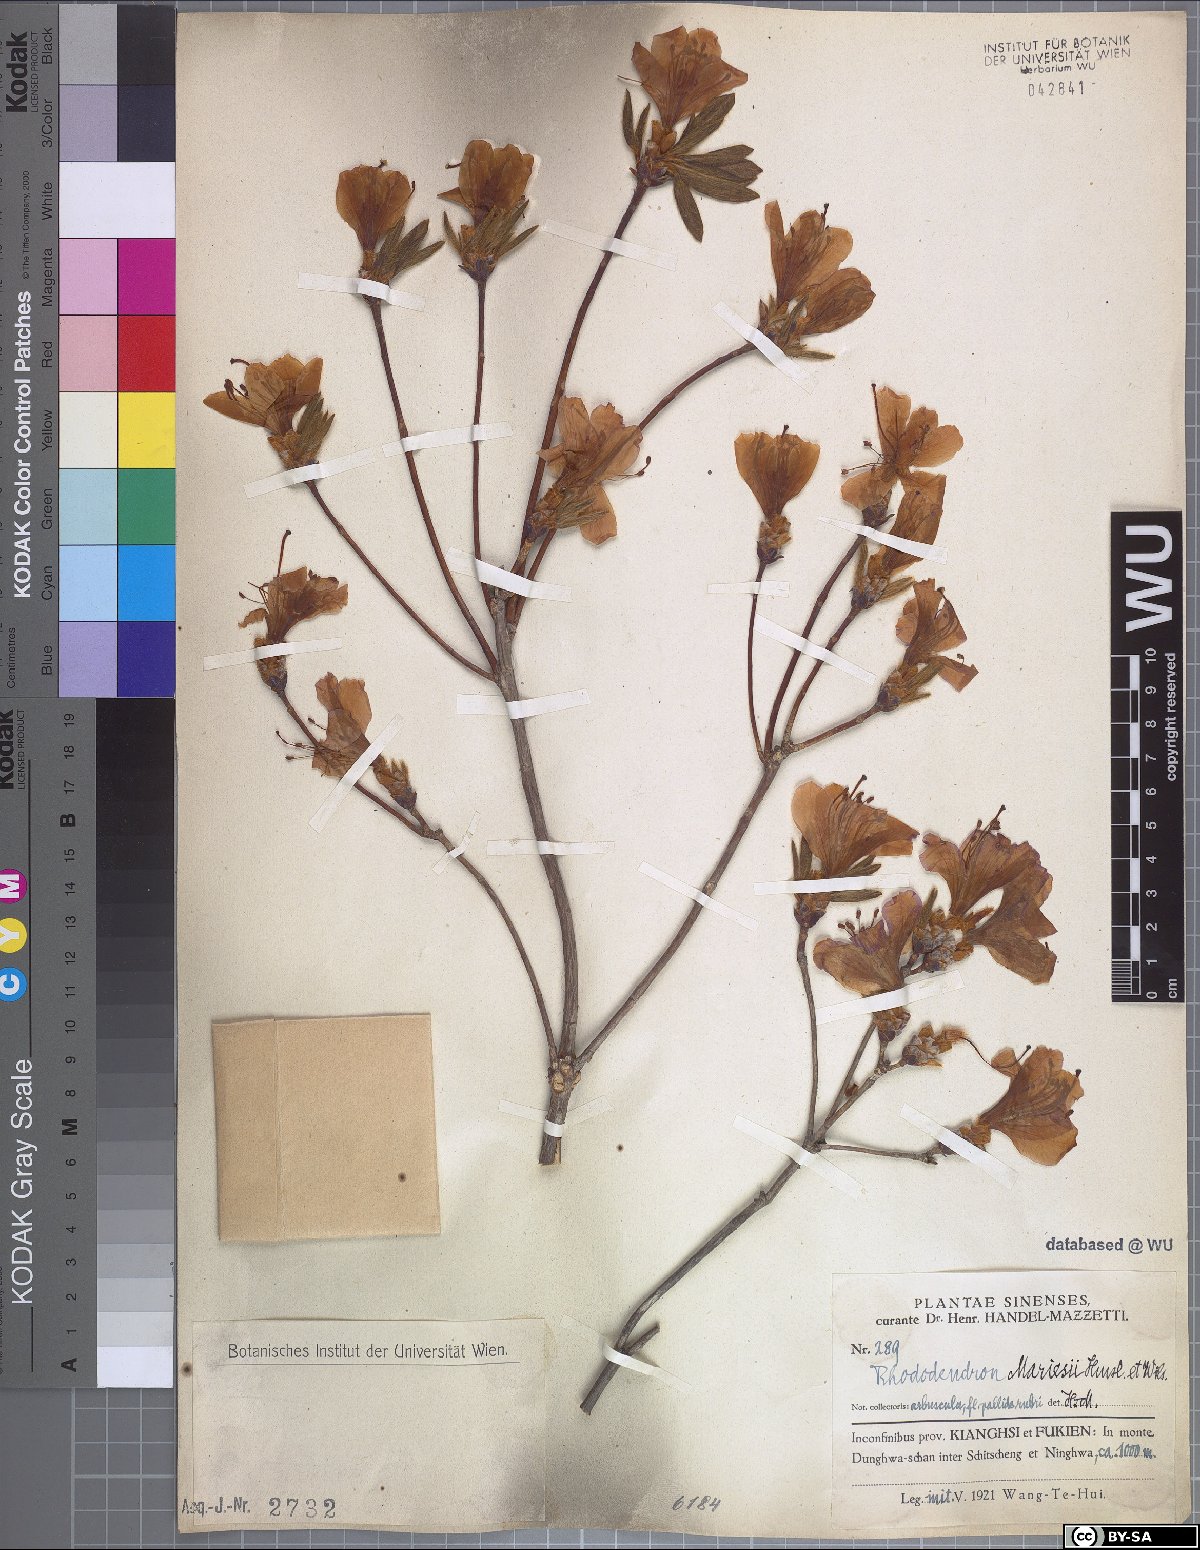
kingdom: Plantae
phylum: Tracheophyta
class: Magnoliopsida
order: Ericales
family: Ericaceae
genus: Rhododendron
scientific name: Rhododendron mariesii
